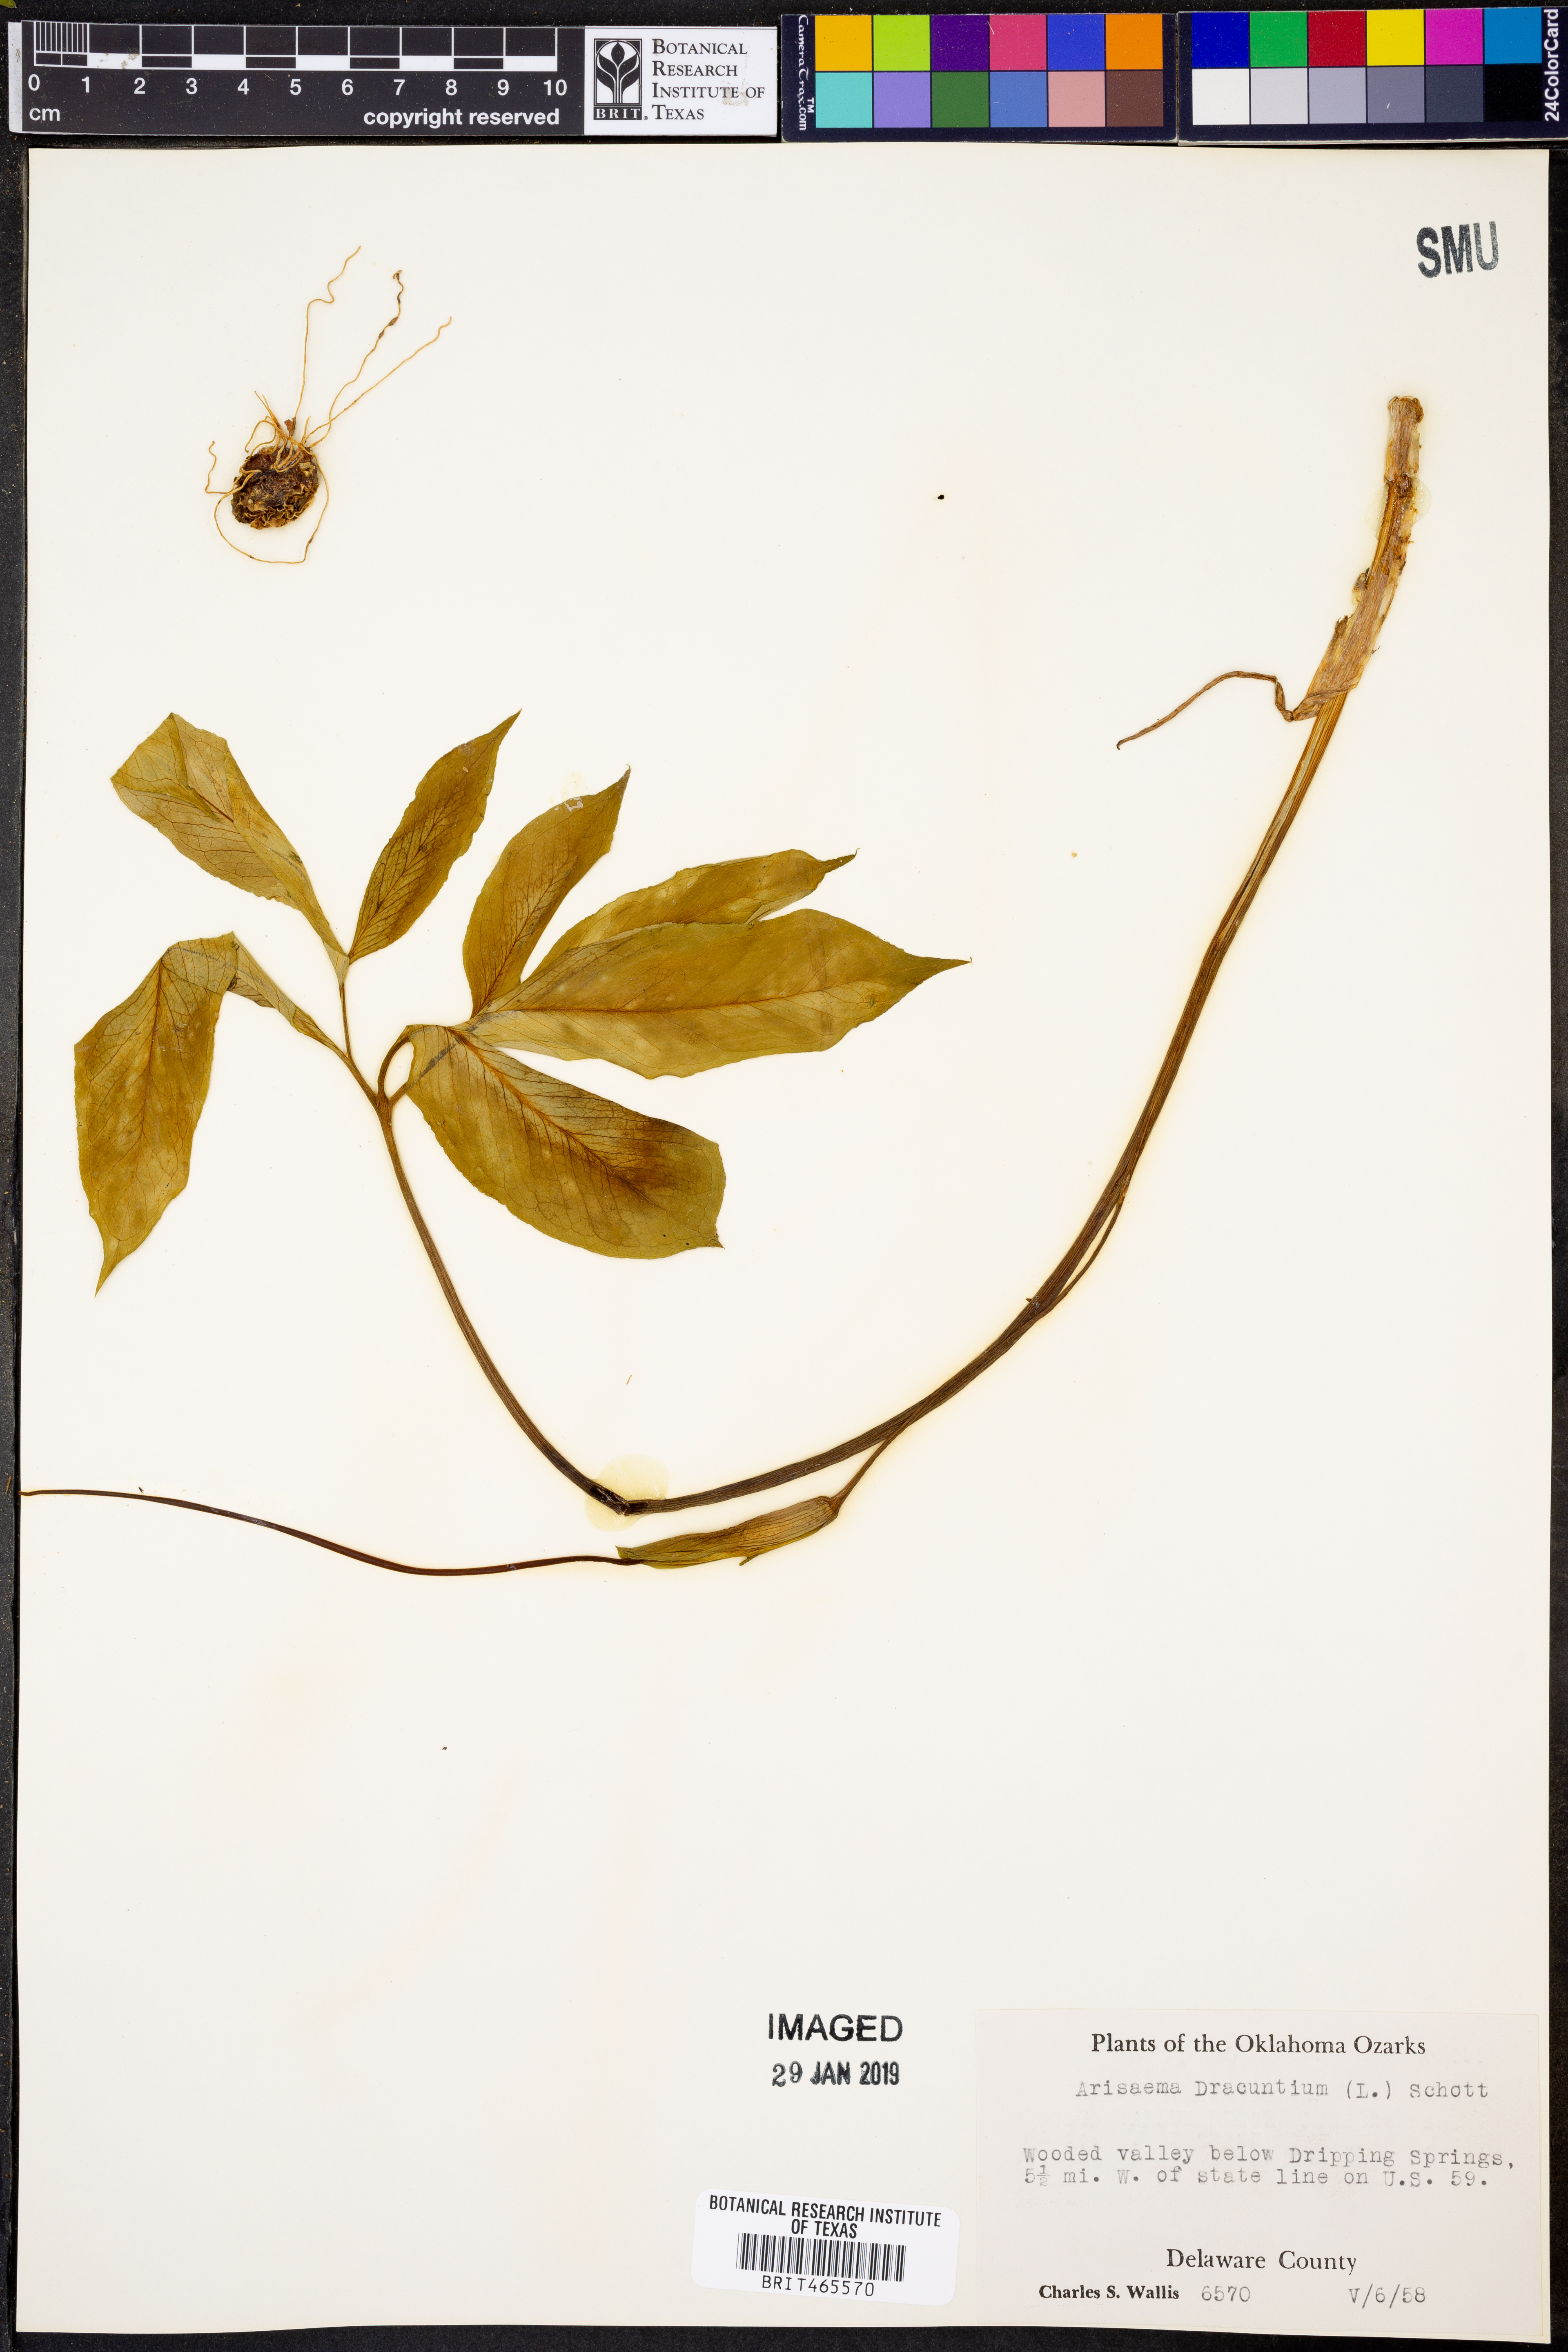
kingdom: Plantae
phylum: Tracheophyta
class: Liliopsida
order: Alismatales
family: Araceae
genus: Arisaema
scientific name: Arisaema dracontium
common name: Dragon-arum
